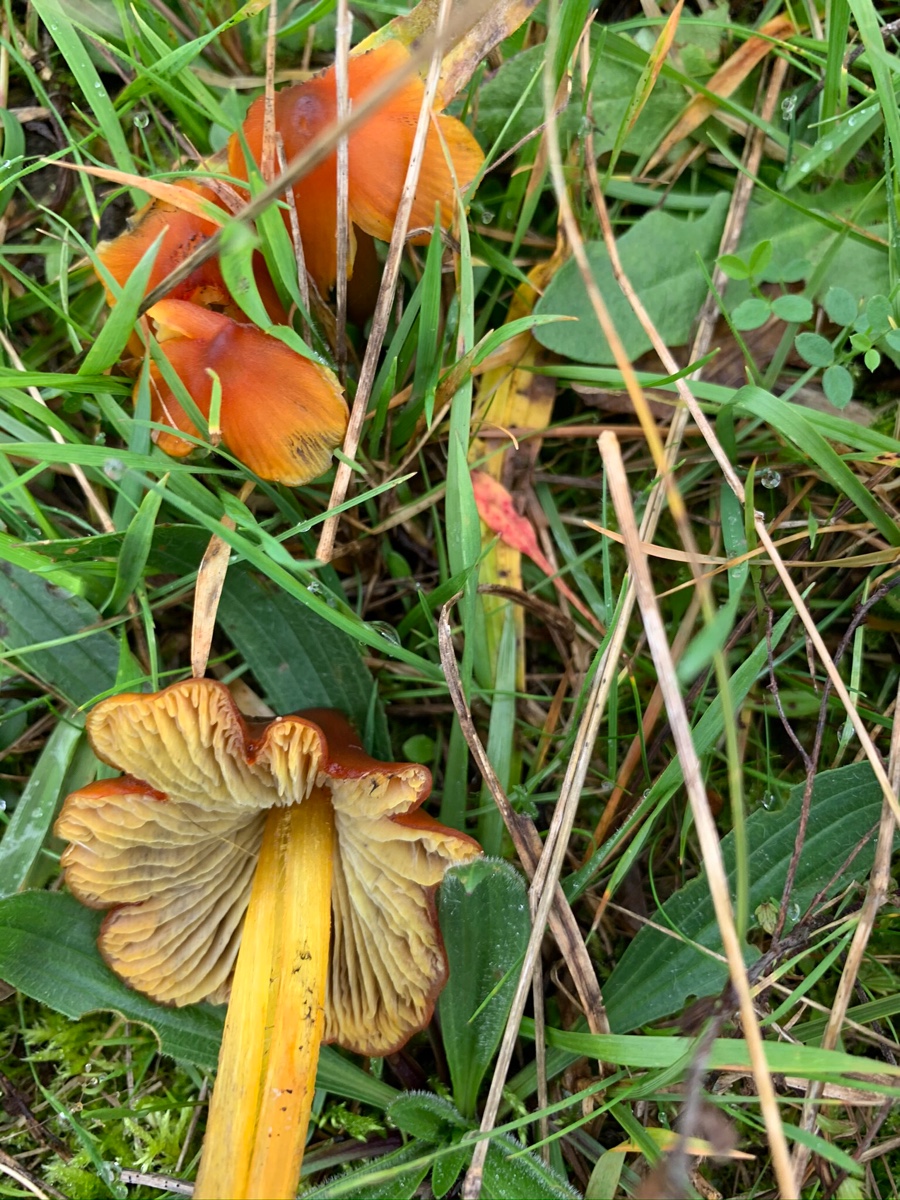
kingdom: Fungi
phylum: Basidiomycota
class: Agaricomycetes
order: Agaricales
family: Hygrophoraceae
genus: Hygrocybe
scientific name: Hygrocybe conica
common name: kegle-vokshat
